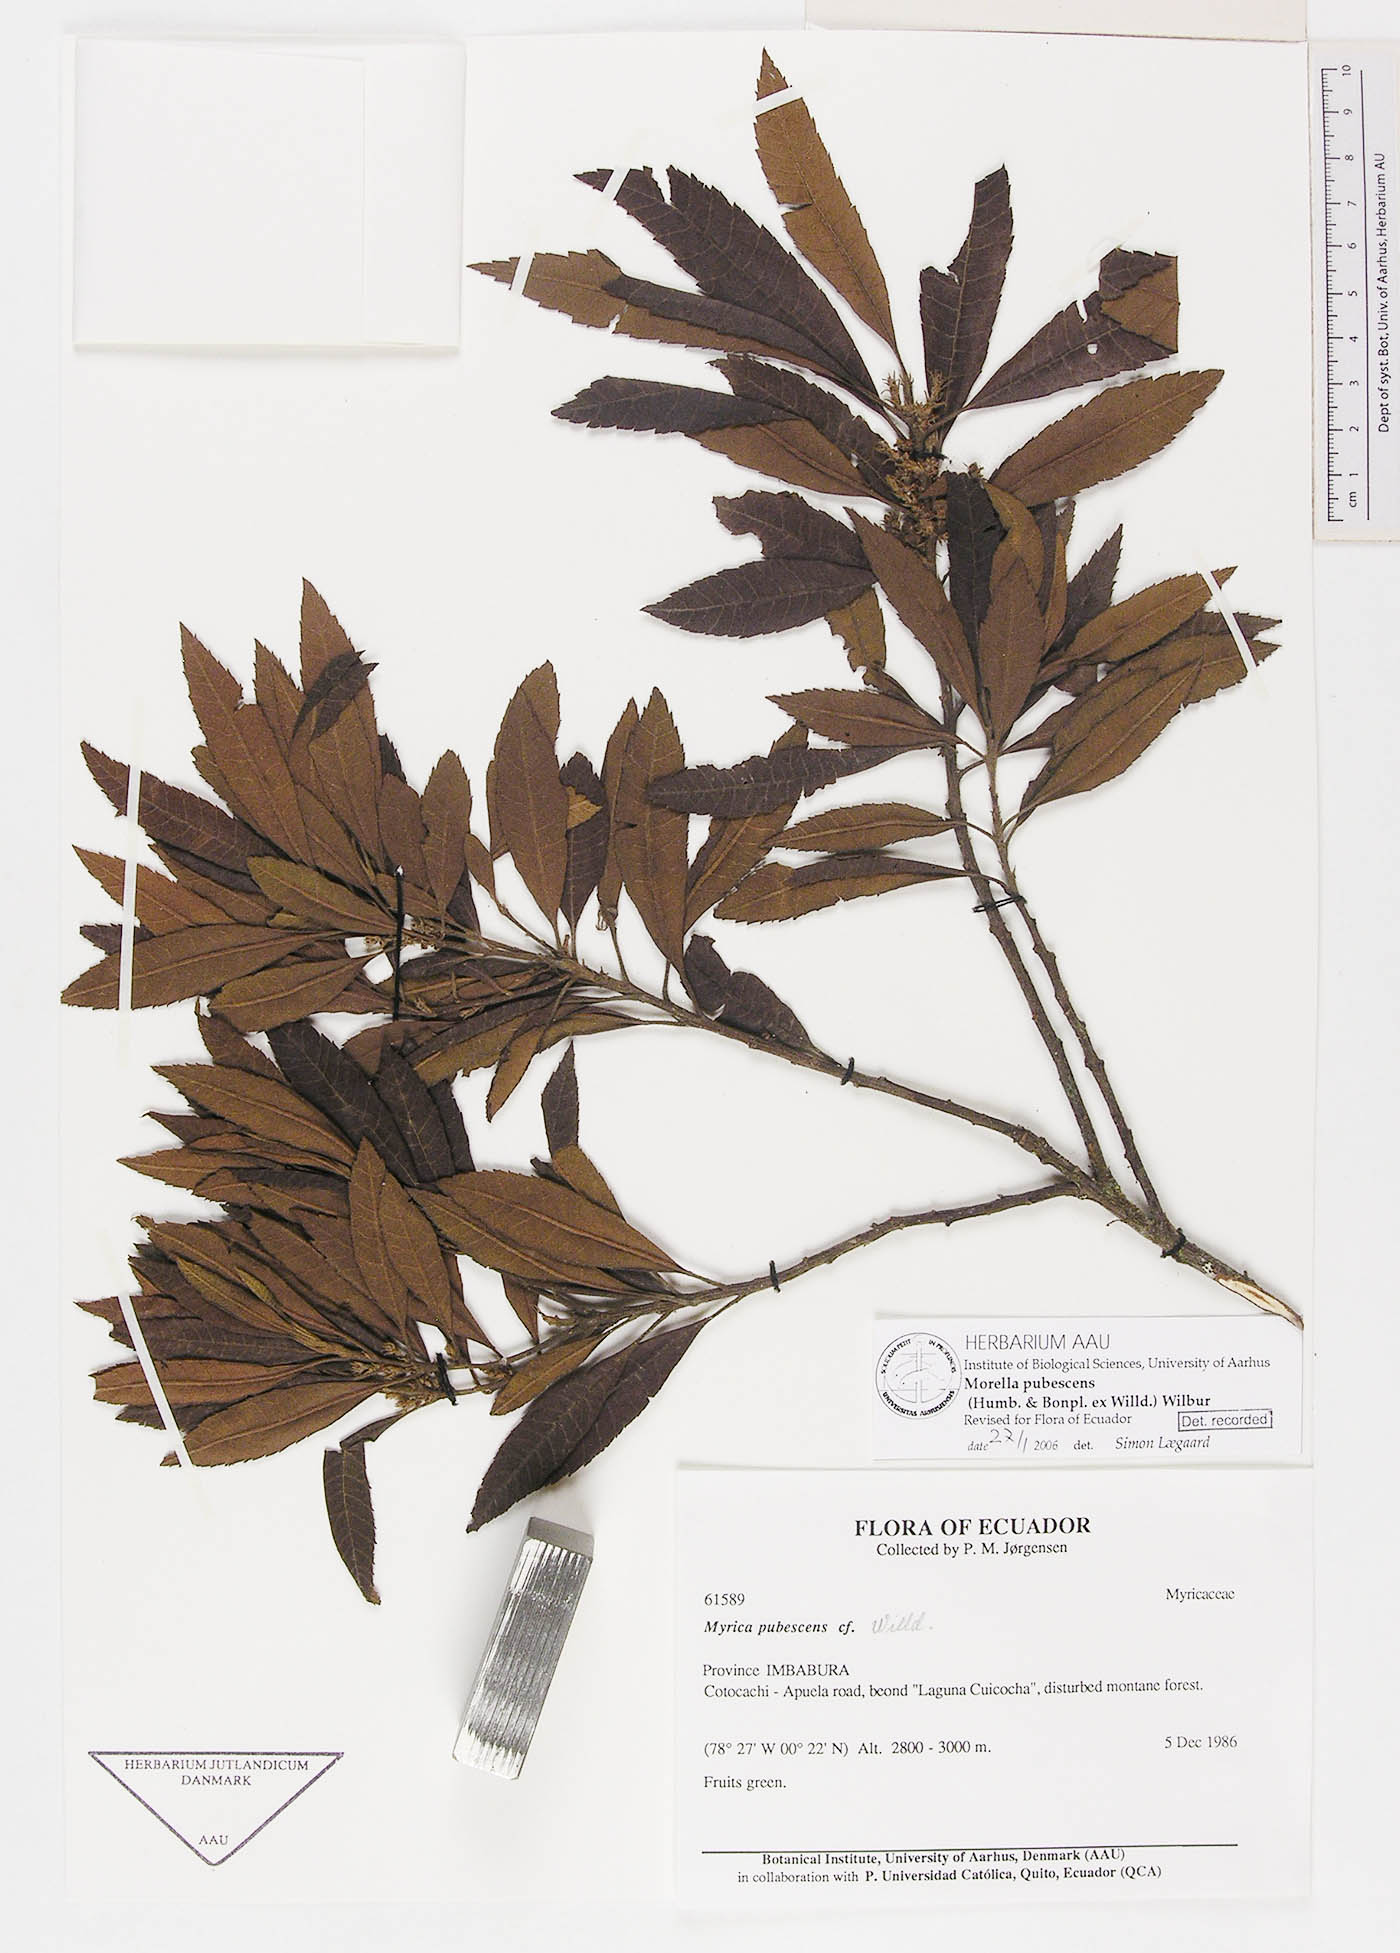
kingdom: Plantae
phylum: Tracheophyta
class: Magnoliopsida
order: Fagales
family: Myricaceae
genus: Morella
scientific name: Morella pubescens
